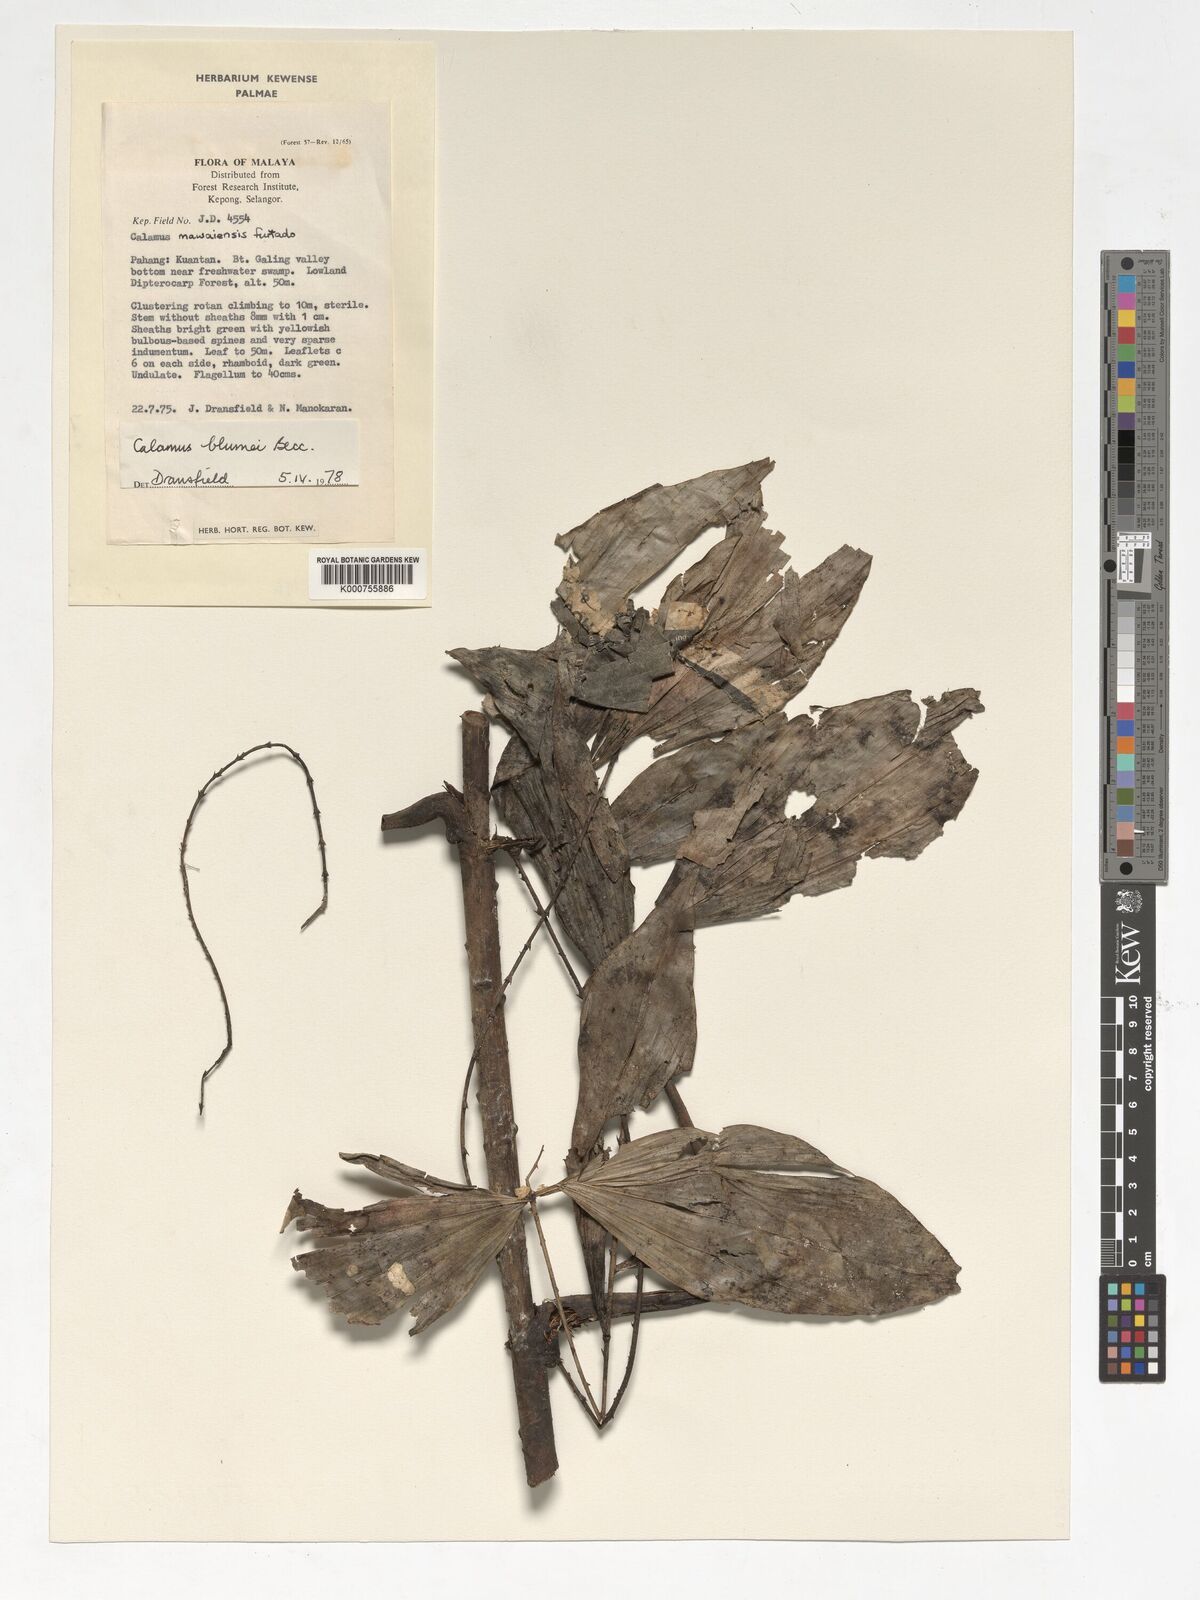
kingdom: Plantae
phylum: Tracheophyta
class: Liliopsida
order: Arecales
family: Arecaceae
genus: Calamus
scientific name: Calamus rhomboideus
